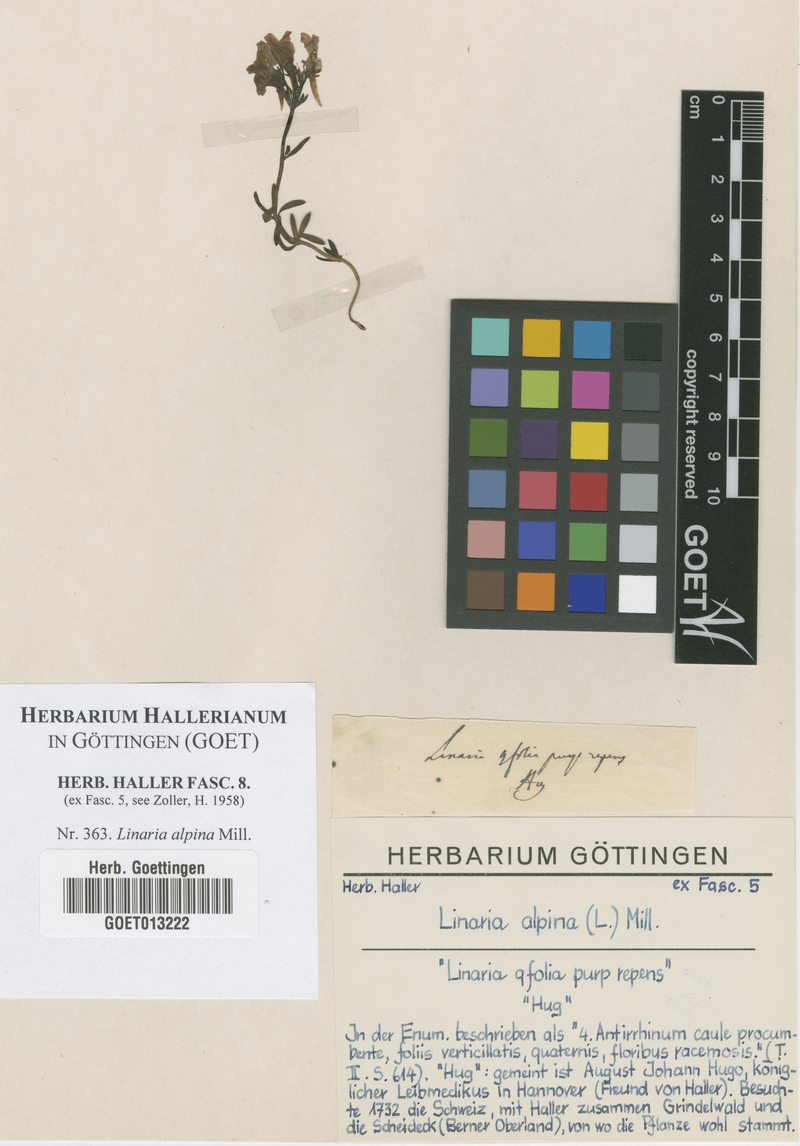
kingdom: Plantae
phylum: Tracheophyta
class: Magnoliopsida
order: Lamiales
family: Plantaginaceae
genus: Linaria
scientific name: Linaria alpina
